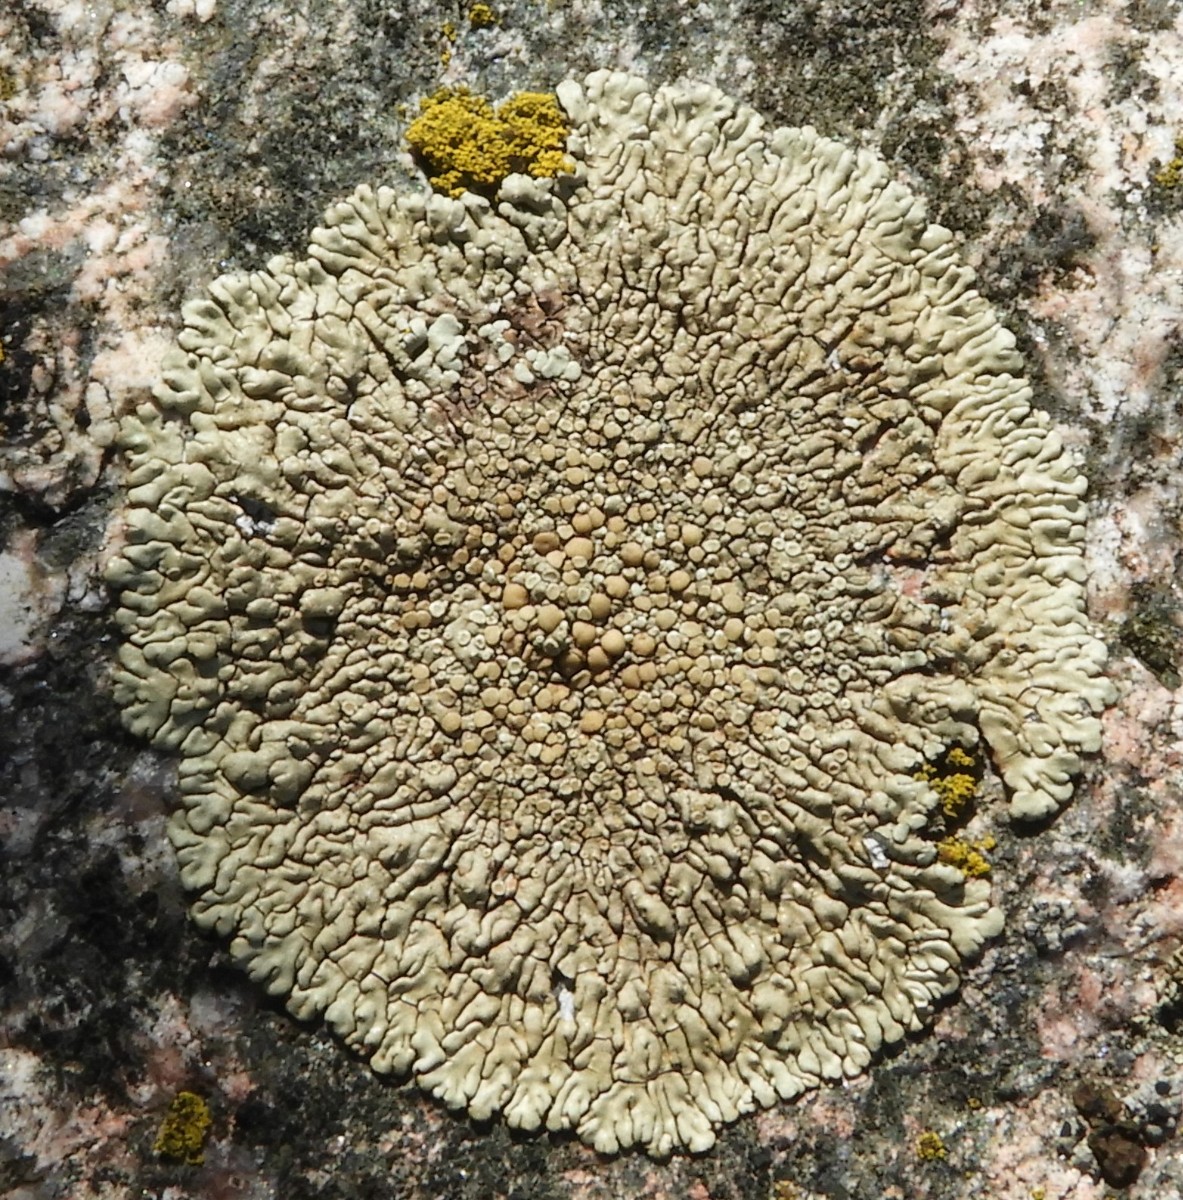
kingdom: Fungi
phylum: Ascomycota
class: Lecanoromycetes
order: Lecanorales
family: Lecanoraceae
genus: Protoparmeliopsis
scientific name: Protoparmeliopsis muralis
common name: randfliget kantskivelav
